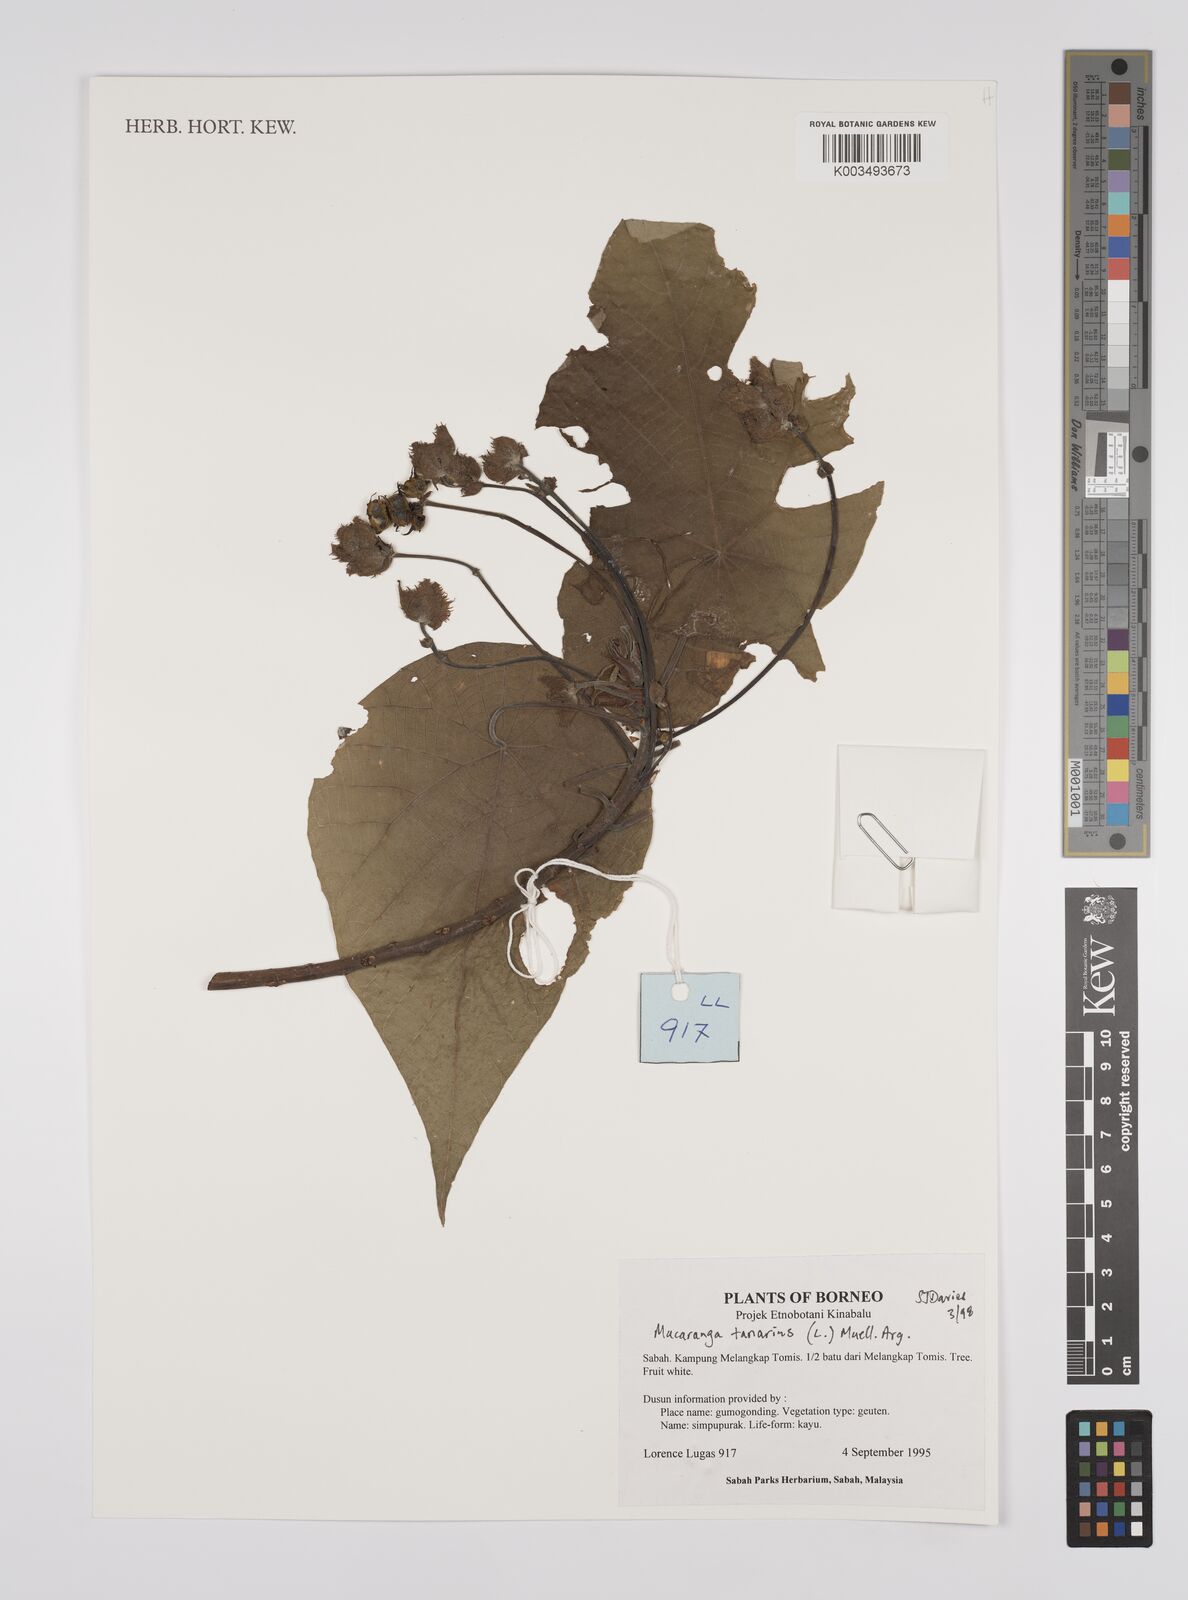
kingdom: Plantae
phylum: Tracheophyta
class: Magnoliopsida
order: Malpighiales
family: Euphorbiaceae
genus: Macaranga
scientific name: Macaranga tanarius
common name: Parasol leaf tree
